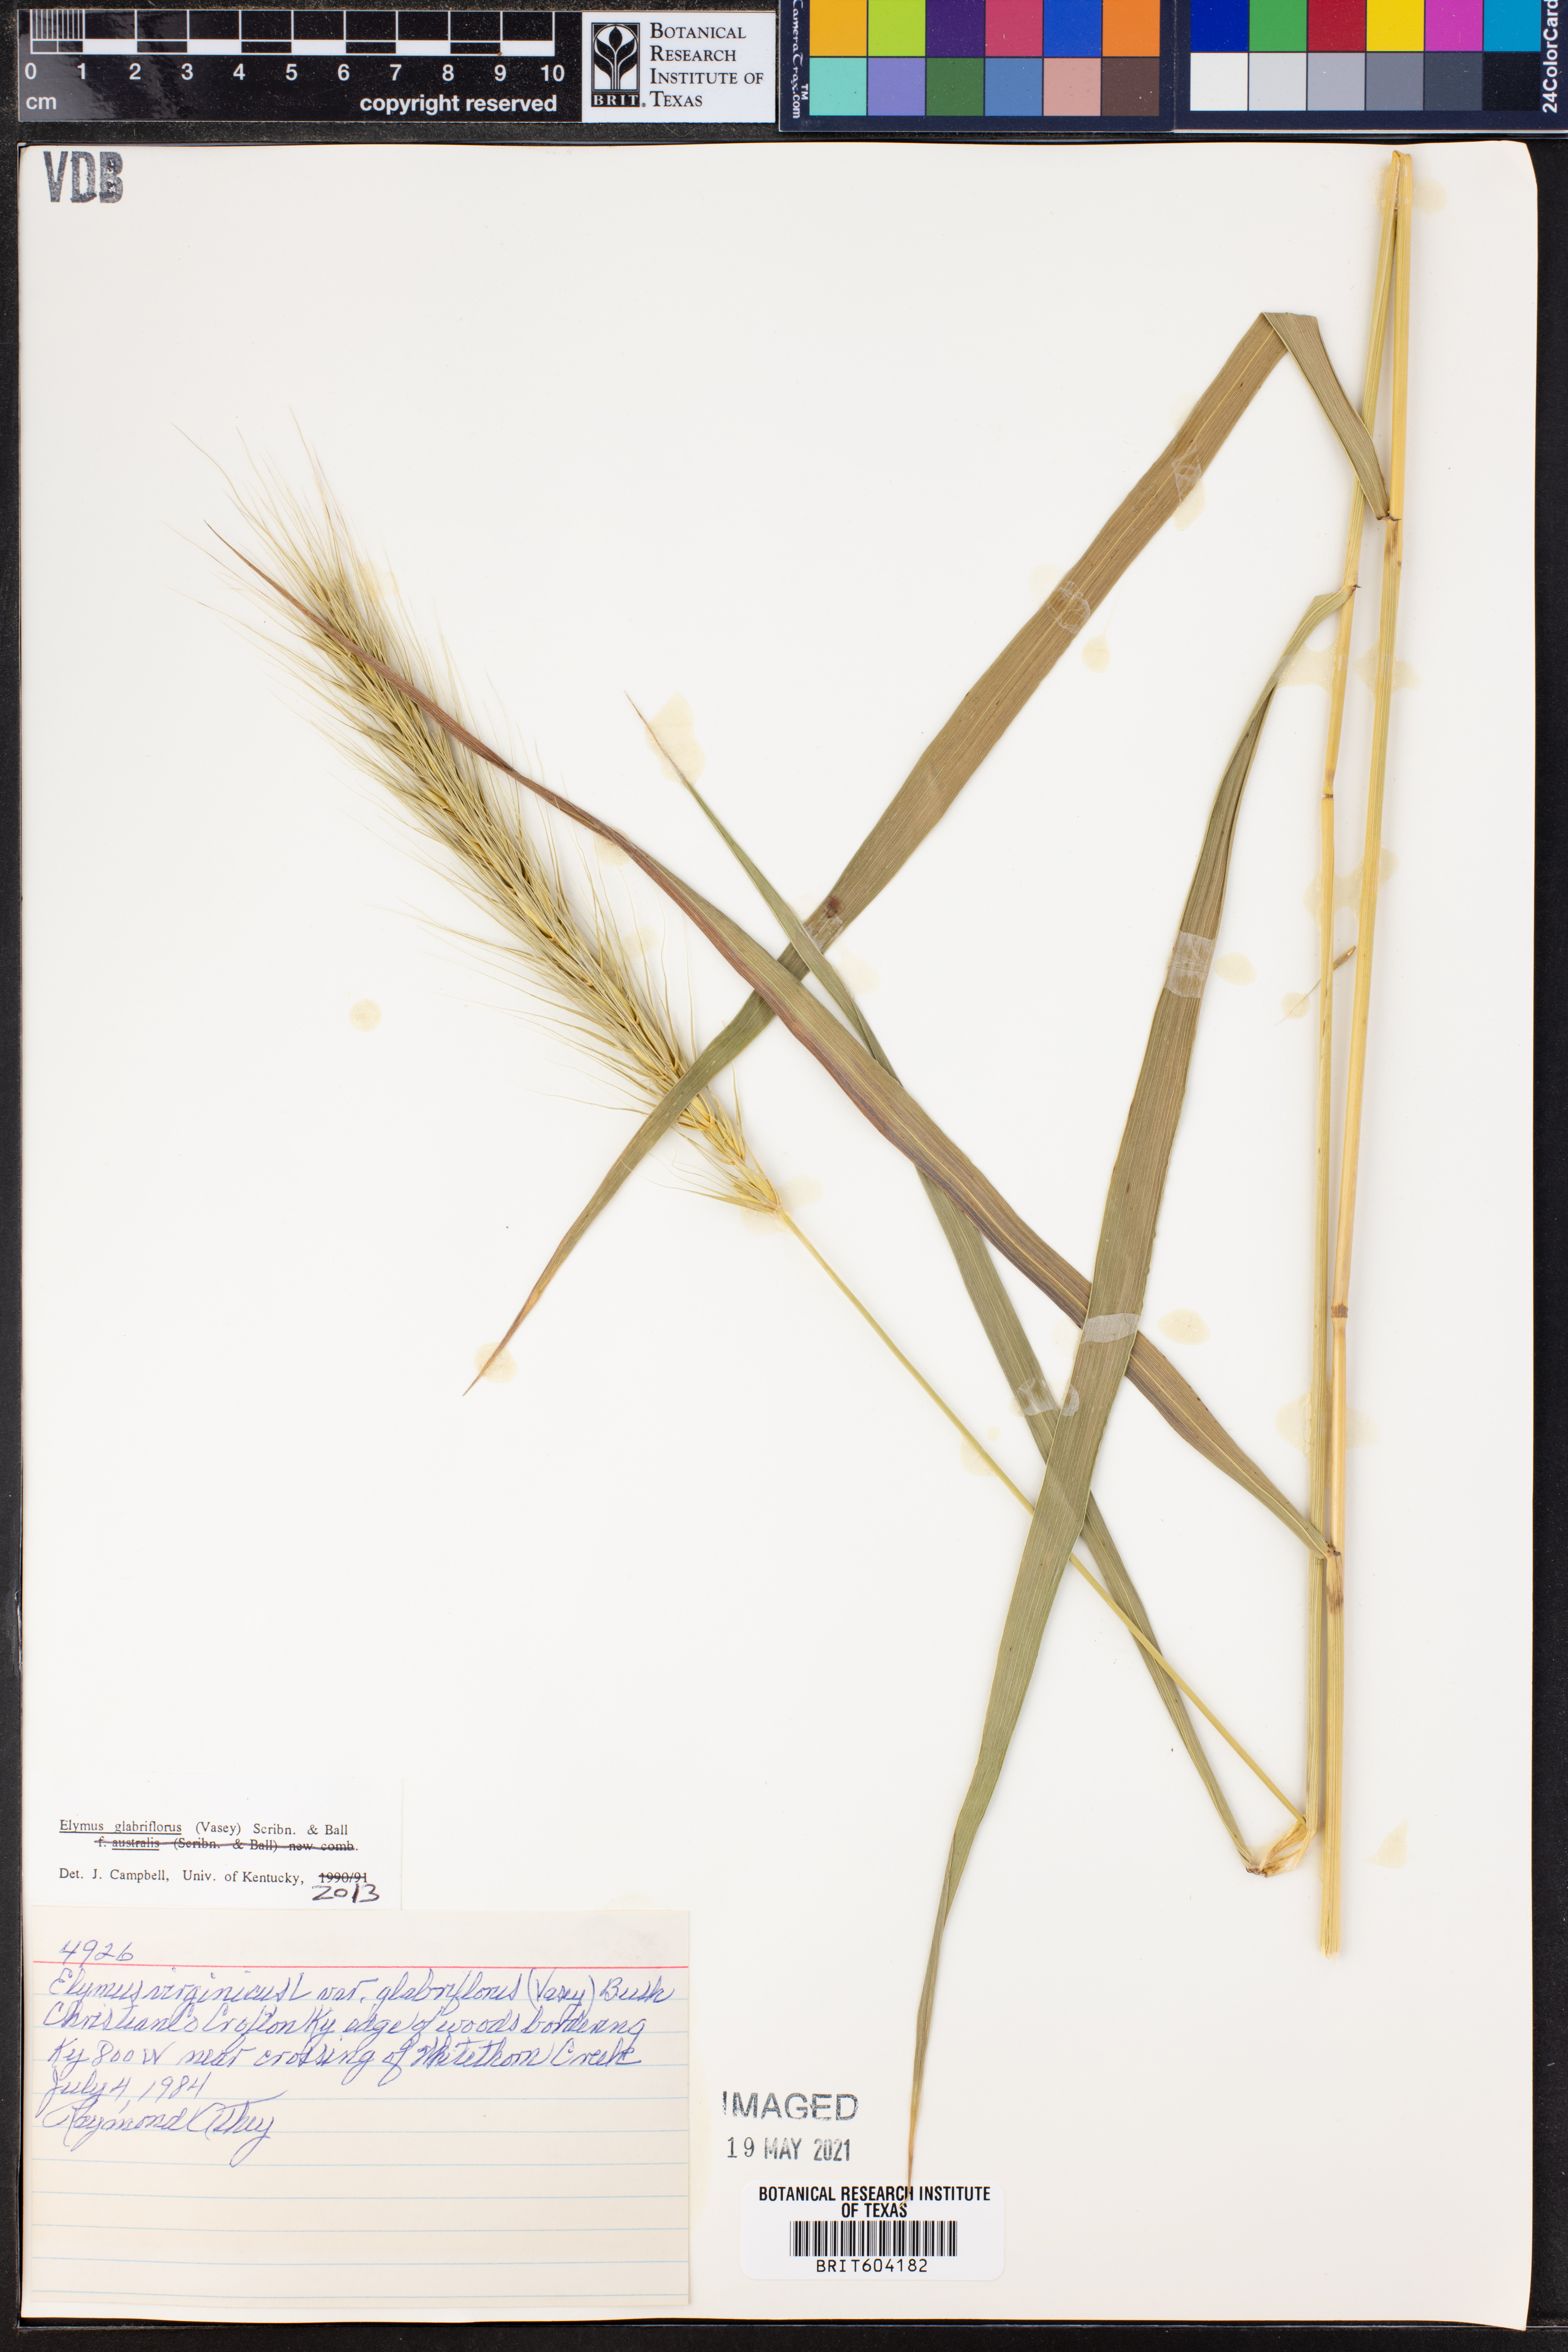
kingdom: Plantae
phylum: Tracheophyta
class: Liliopsida
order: Poales
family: Poaceae
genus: Elymus
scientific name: Elymus virginicus
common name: Common eastern wildrye
